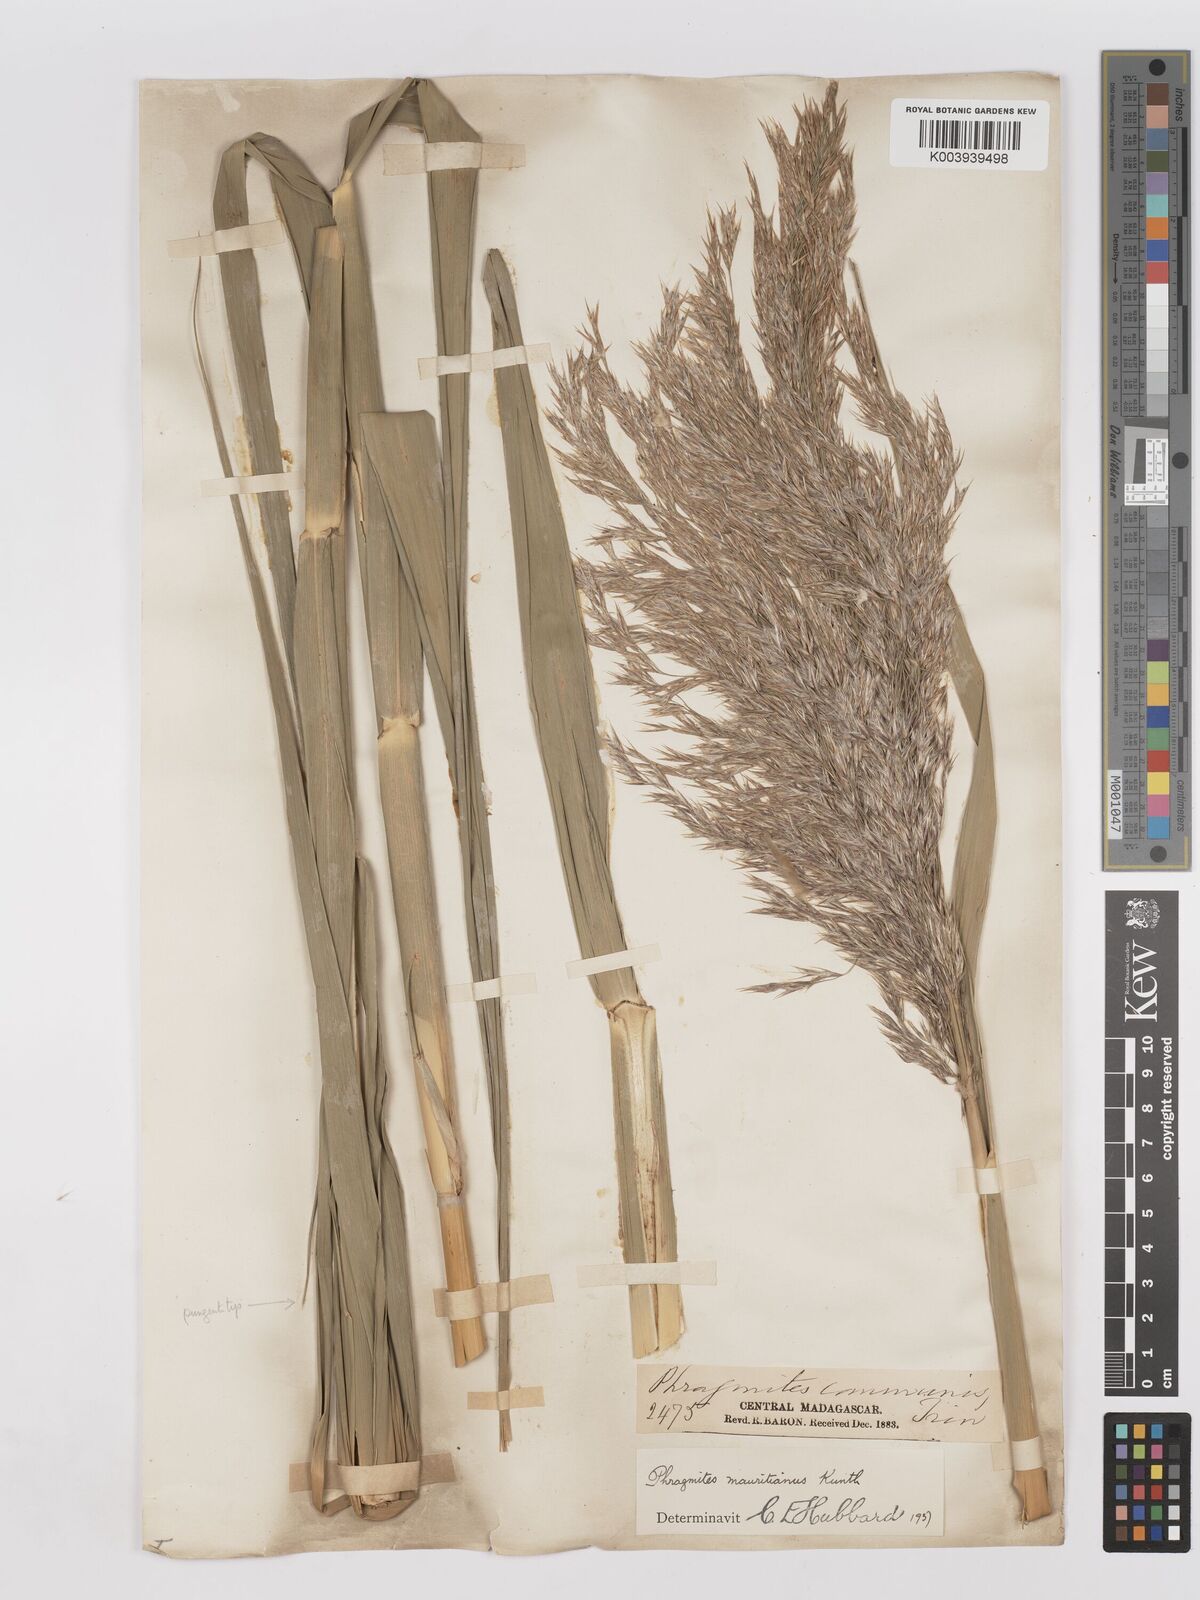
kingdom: Plantae
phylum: Tracheophyta
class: Liliopsida
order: Poales
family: Poaceae
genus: Phragmites
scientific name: Phragmites mauritianus
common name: Reed grass
